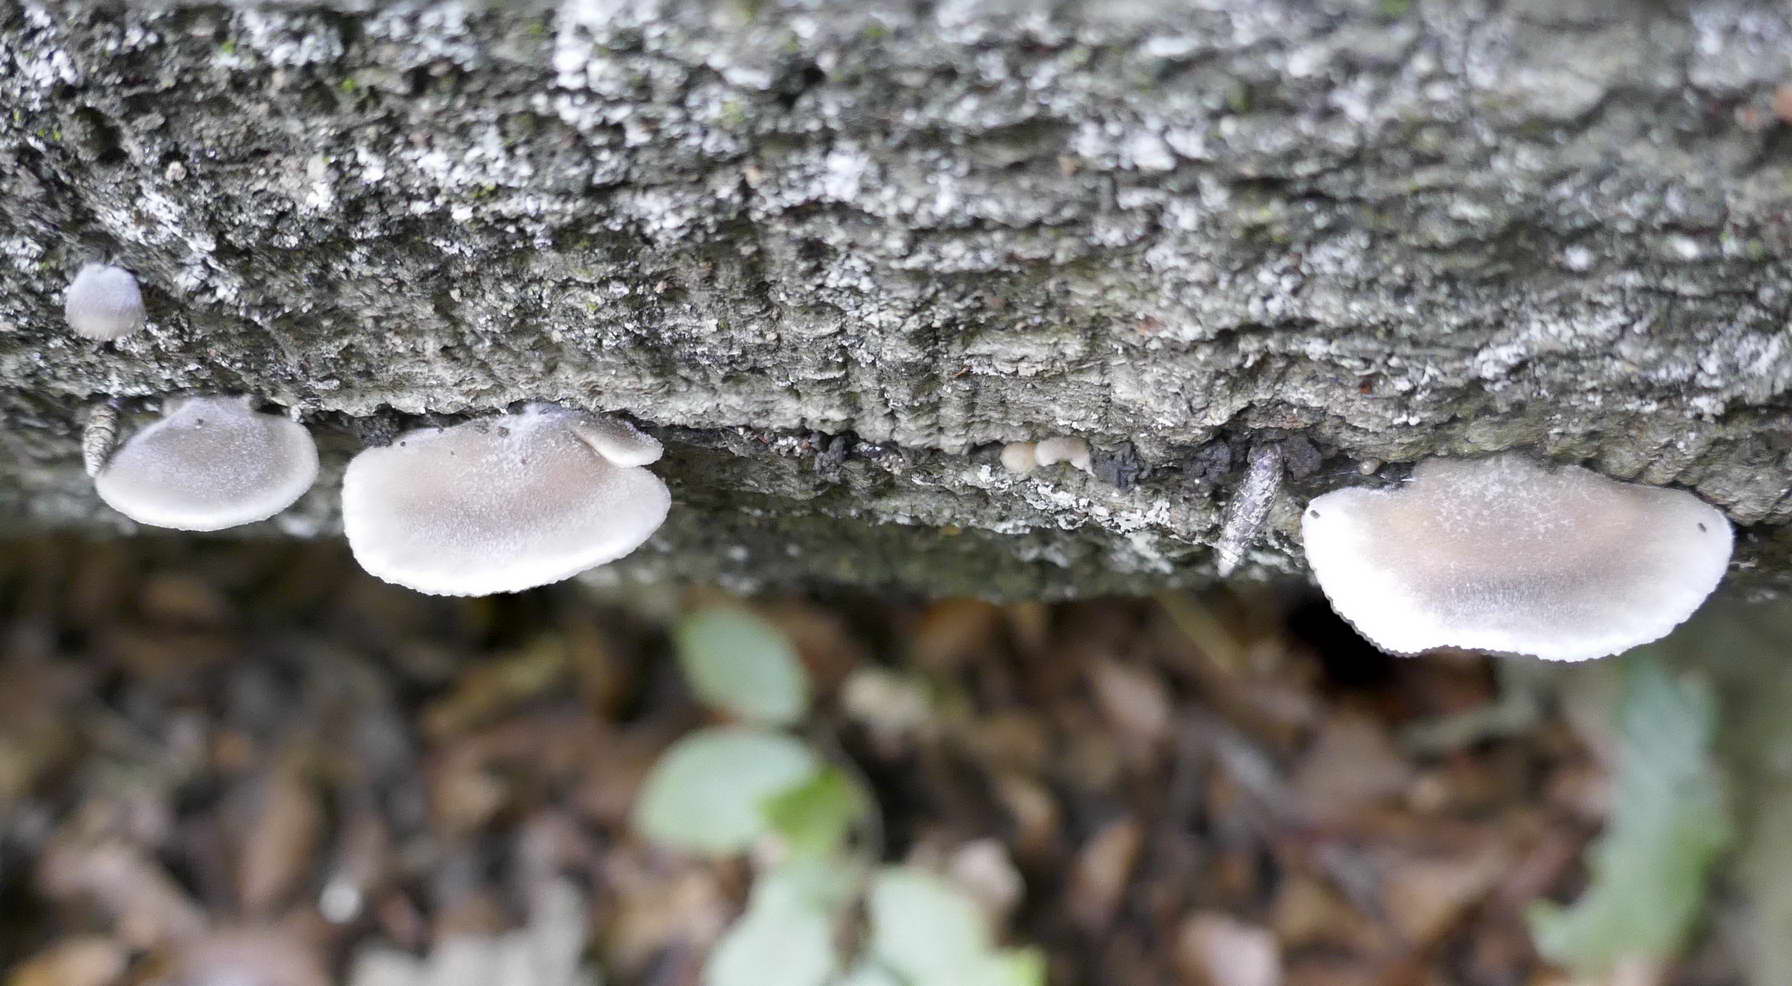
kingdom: Fungi
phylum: Basidiomycota
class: Agaricomycetes
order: Agaricales
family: Pleurotaceae
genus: Hohenbuehelia
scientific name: Hohenbuehelia
